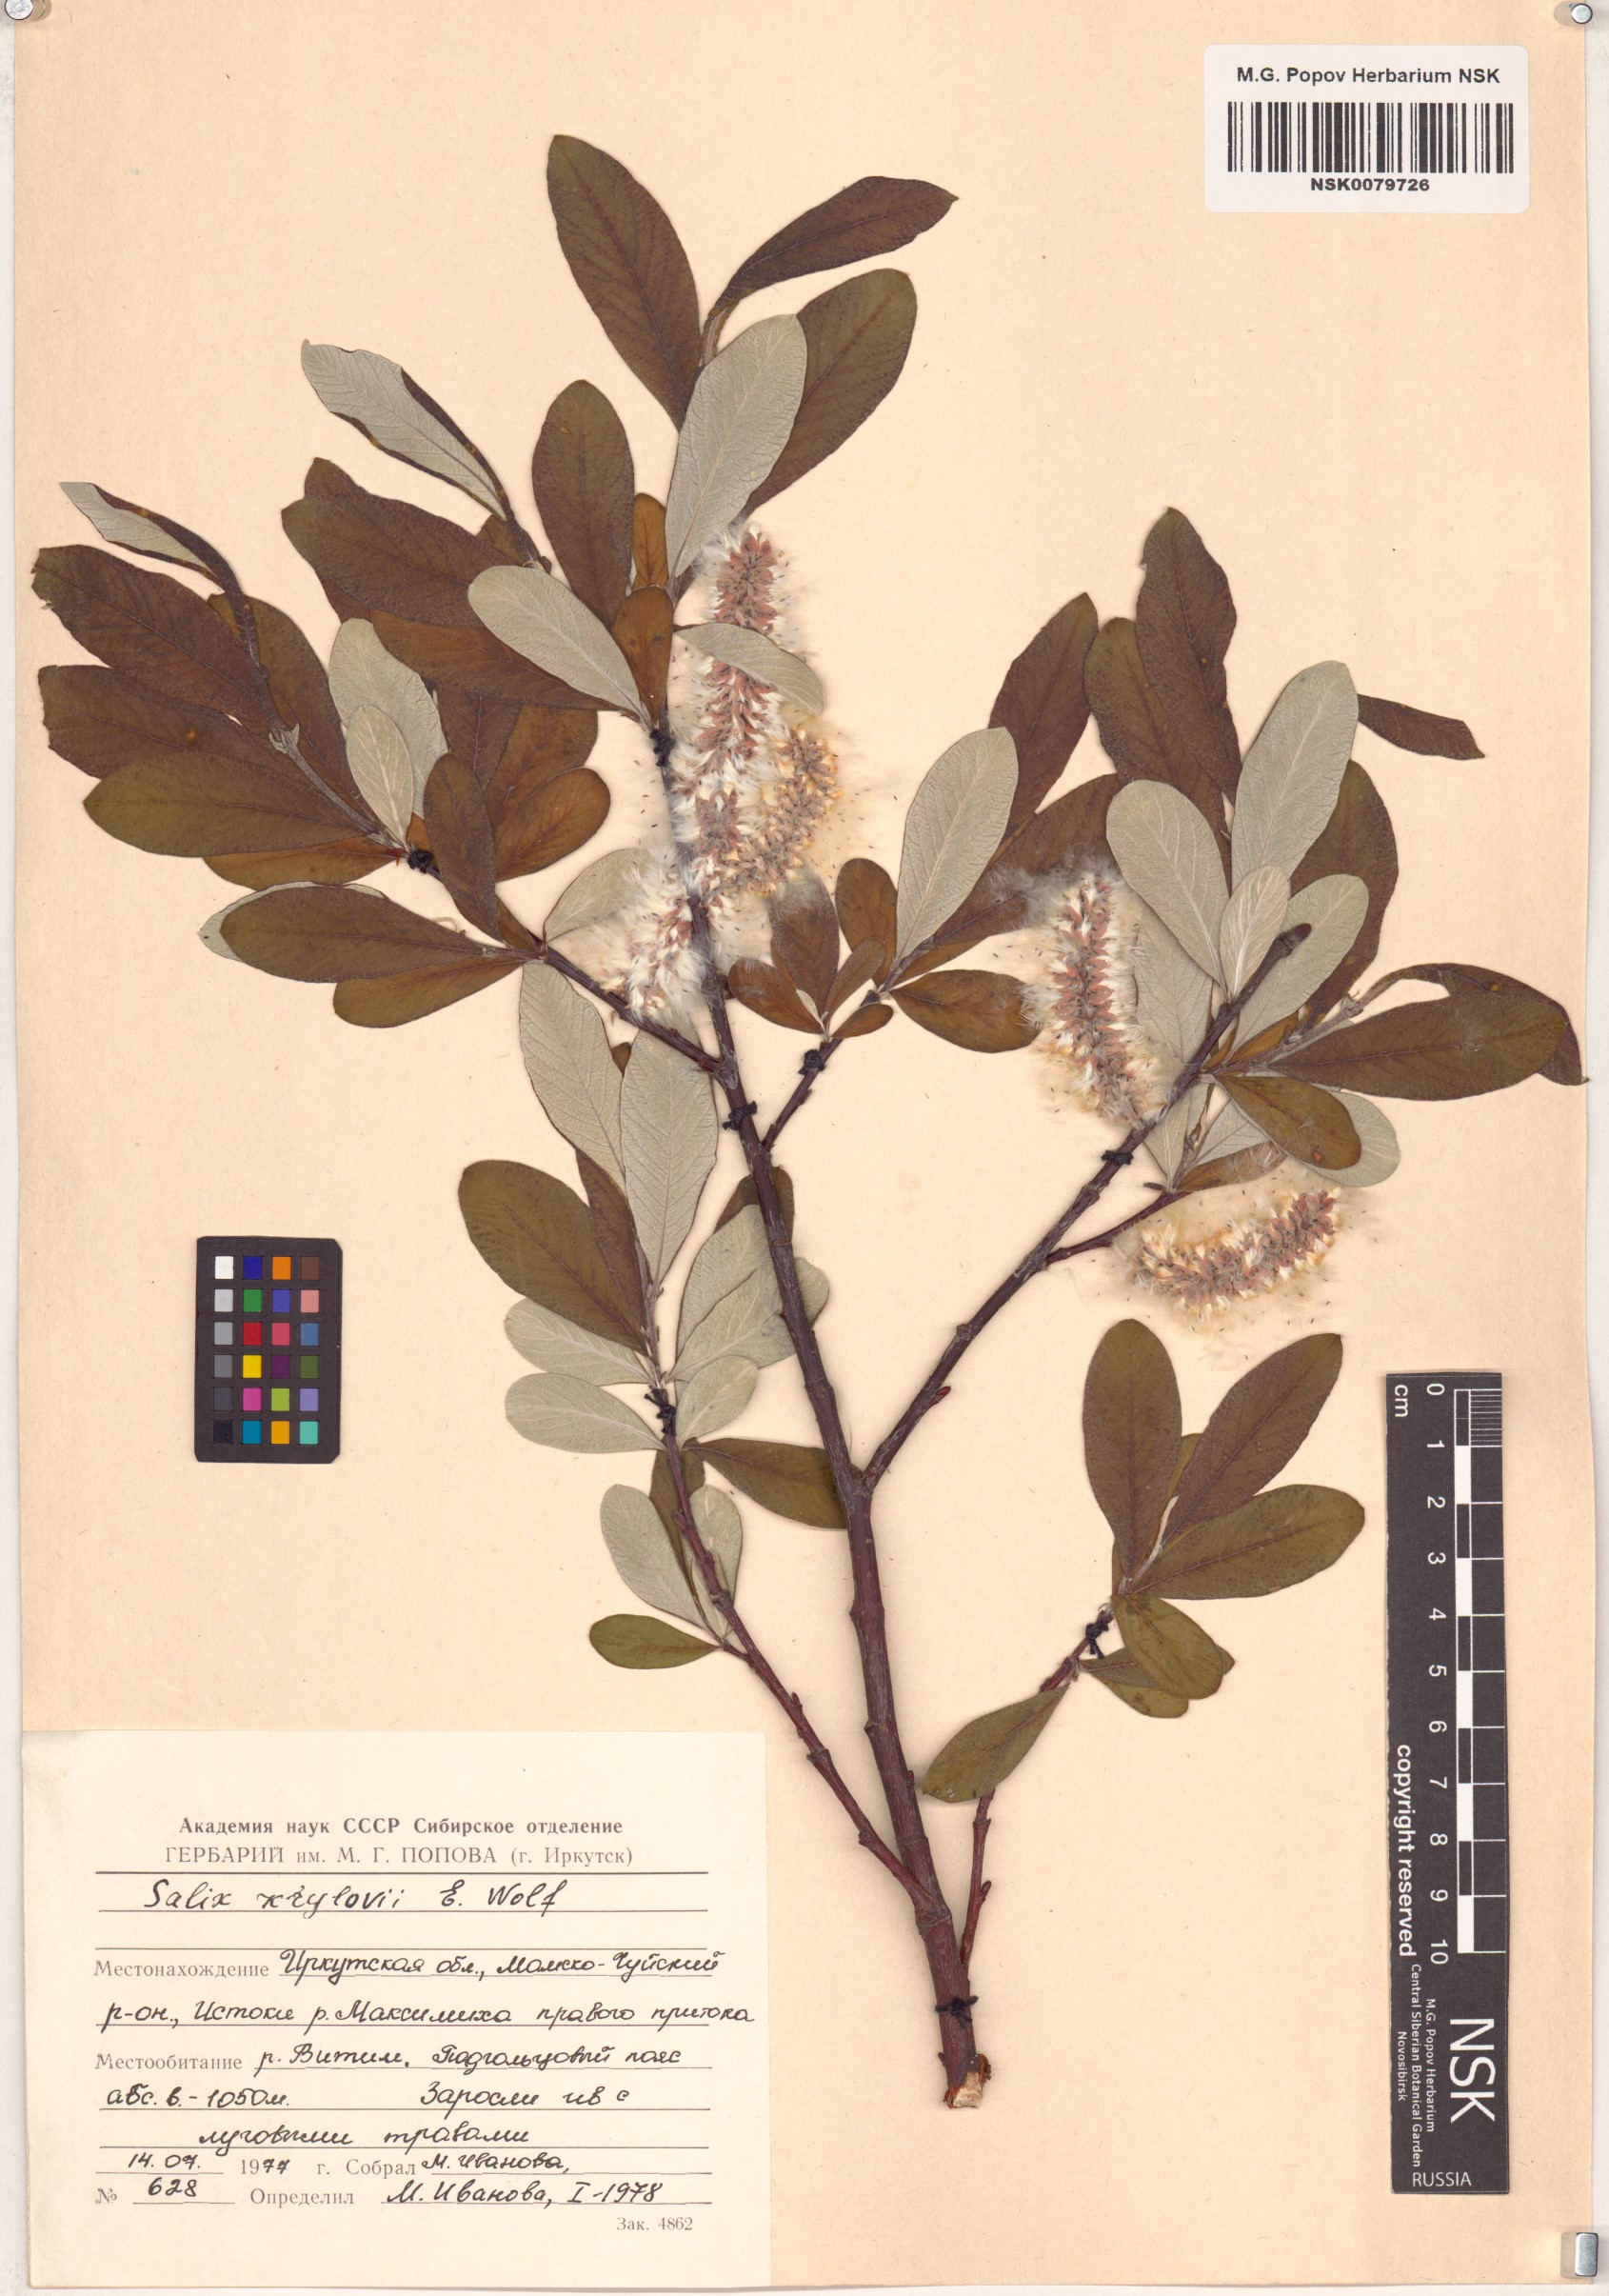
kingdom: Plantae
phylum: Tracheophyta
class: Magnoliopsida
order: Malpighiales
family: Salicaceae
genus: Salix
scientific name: Salix krylovii
